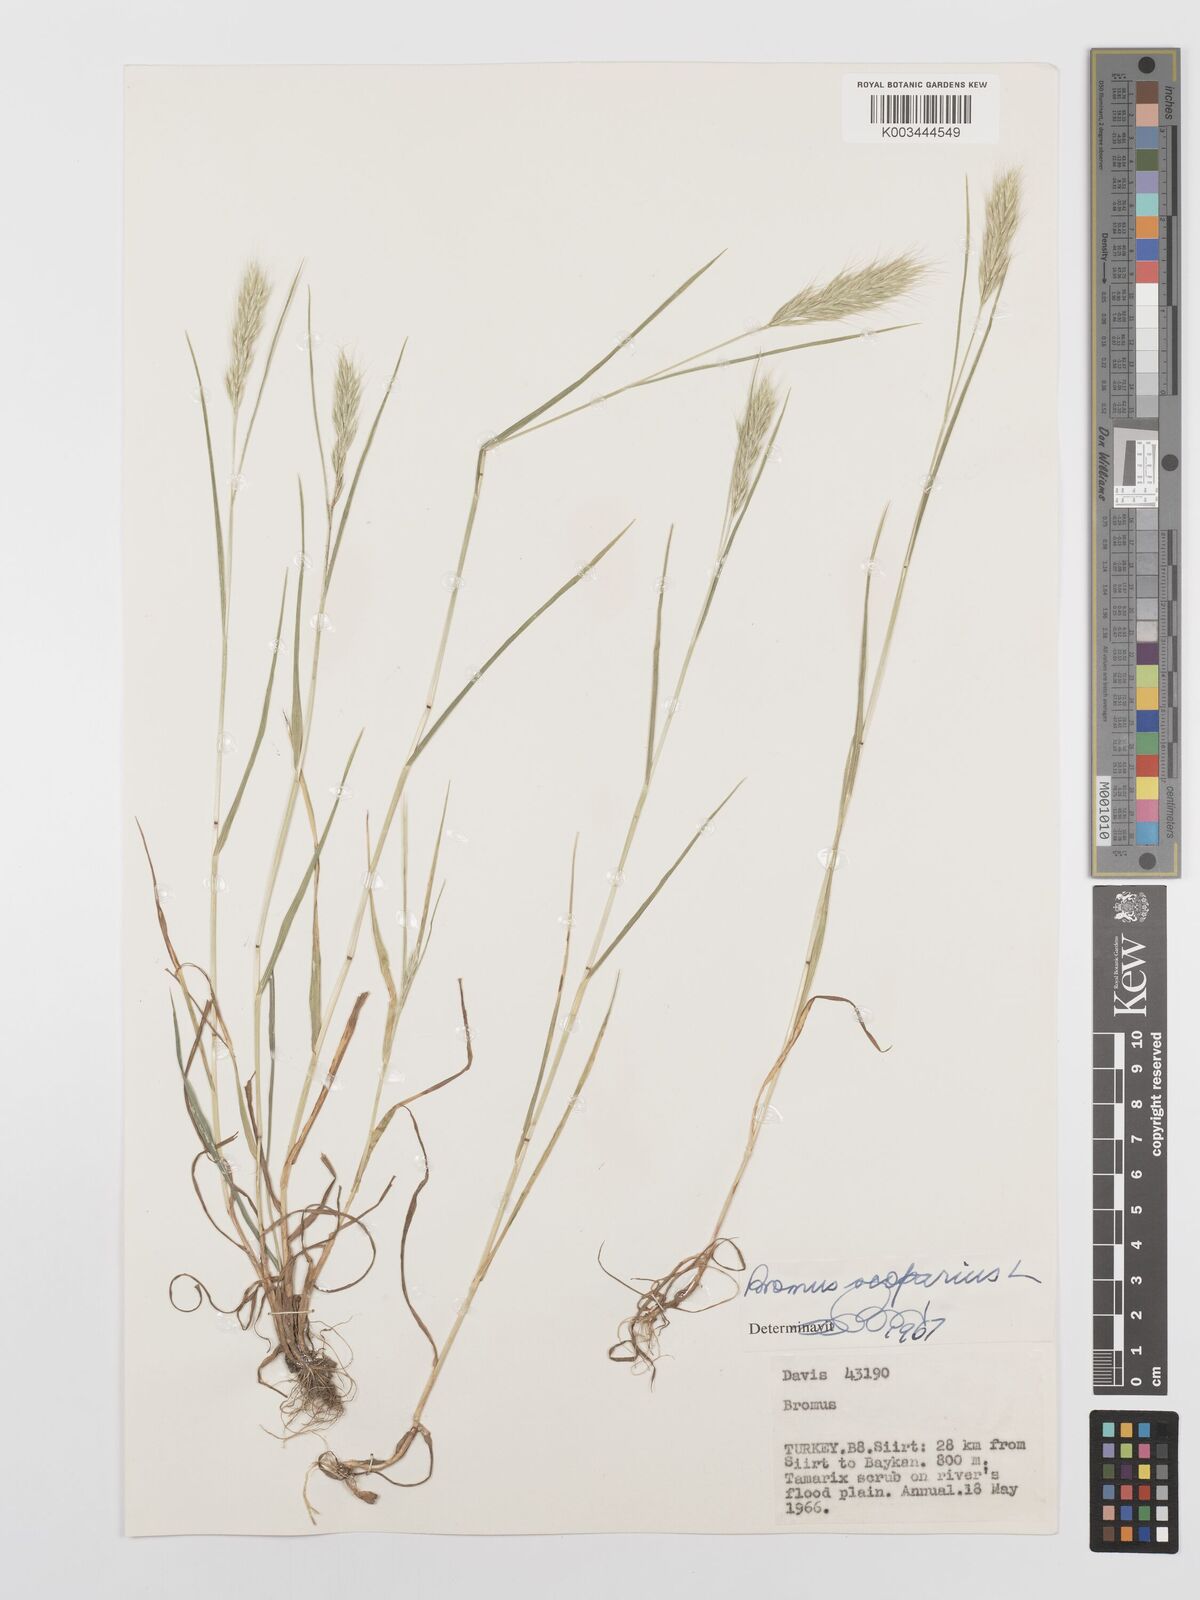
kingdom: Plantae
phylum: Tracheophyta
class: Liliopsida
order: Poales
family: Poaceae
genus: Bromus
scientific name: Bromus scoparius
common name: Broom brome
